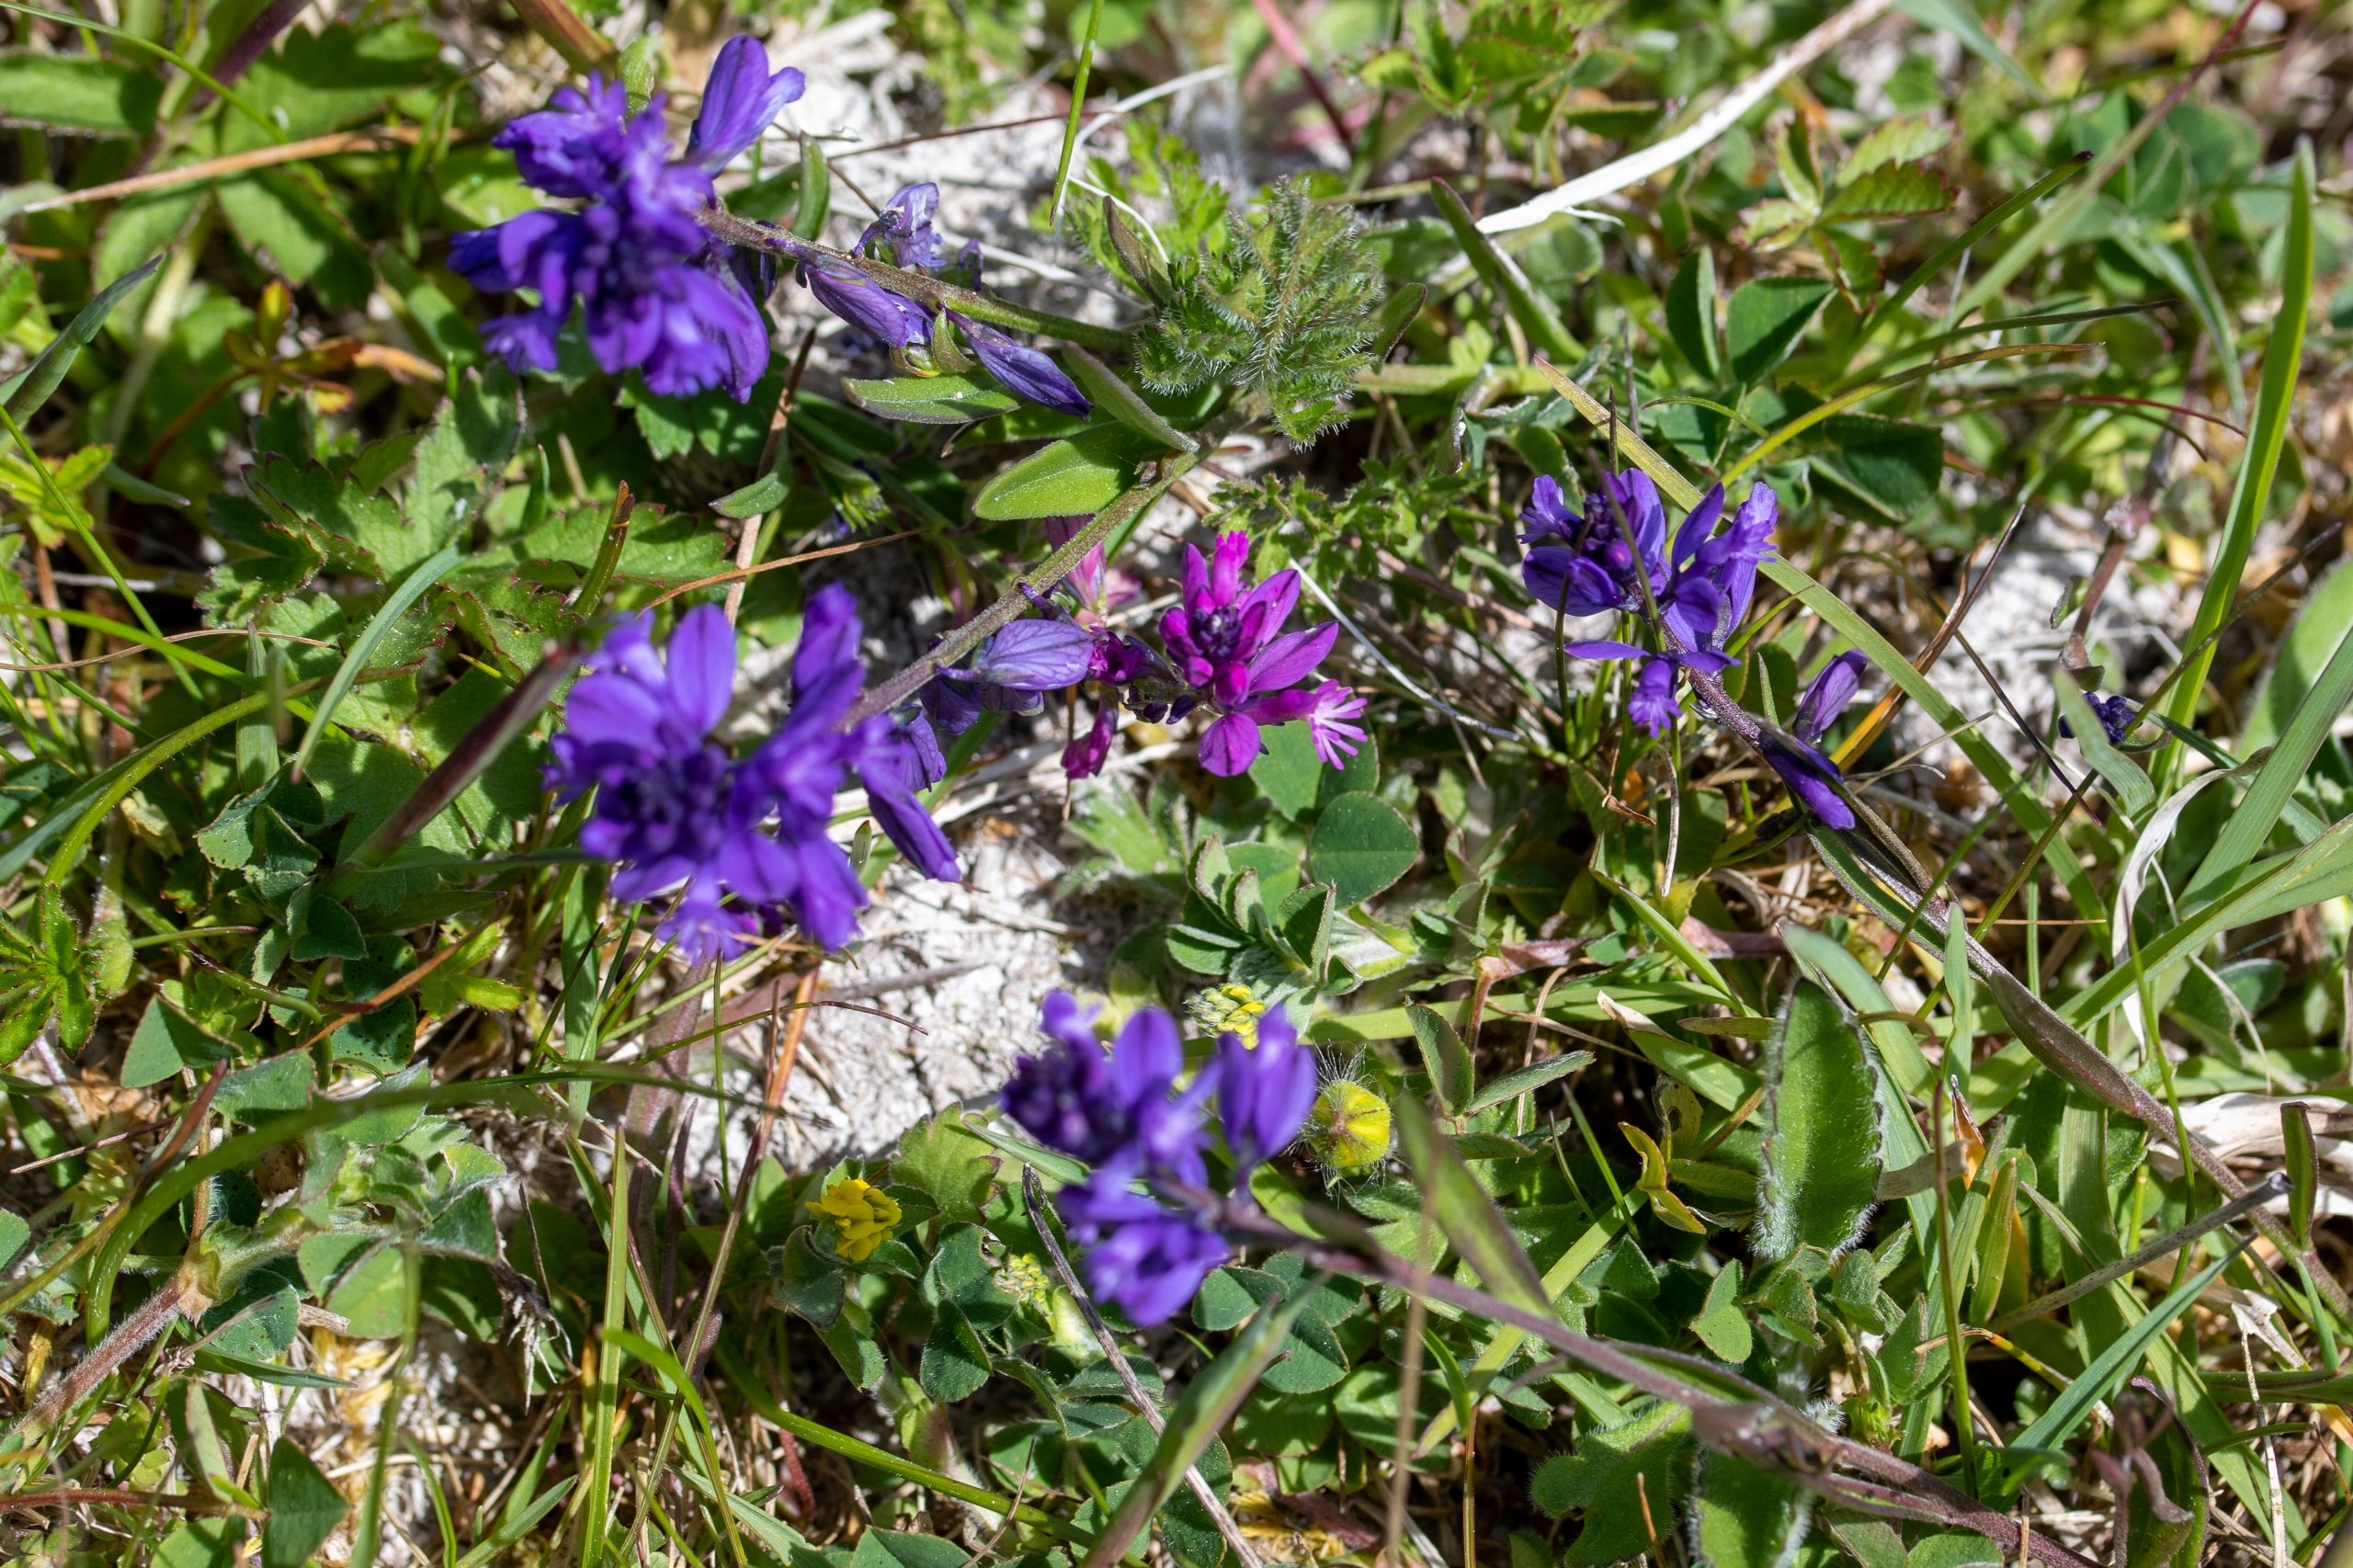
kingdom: Plantae
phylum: Tracheophyta
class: Magnoliopsida
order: Fabales
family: Polygalaceae
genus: Polygala
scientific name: Polygala vulgaris
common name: Almindelig mælkeurt
